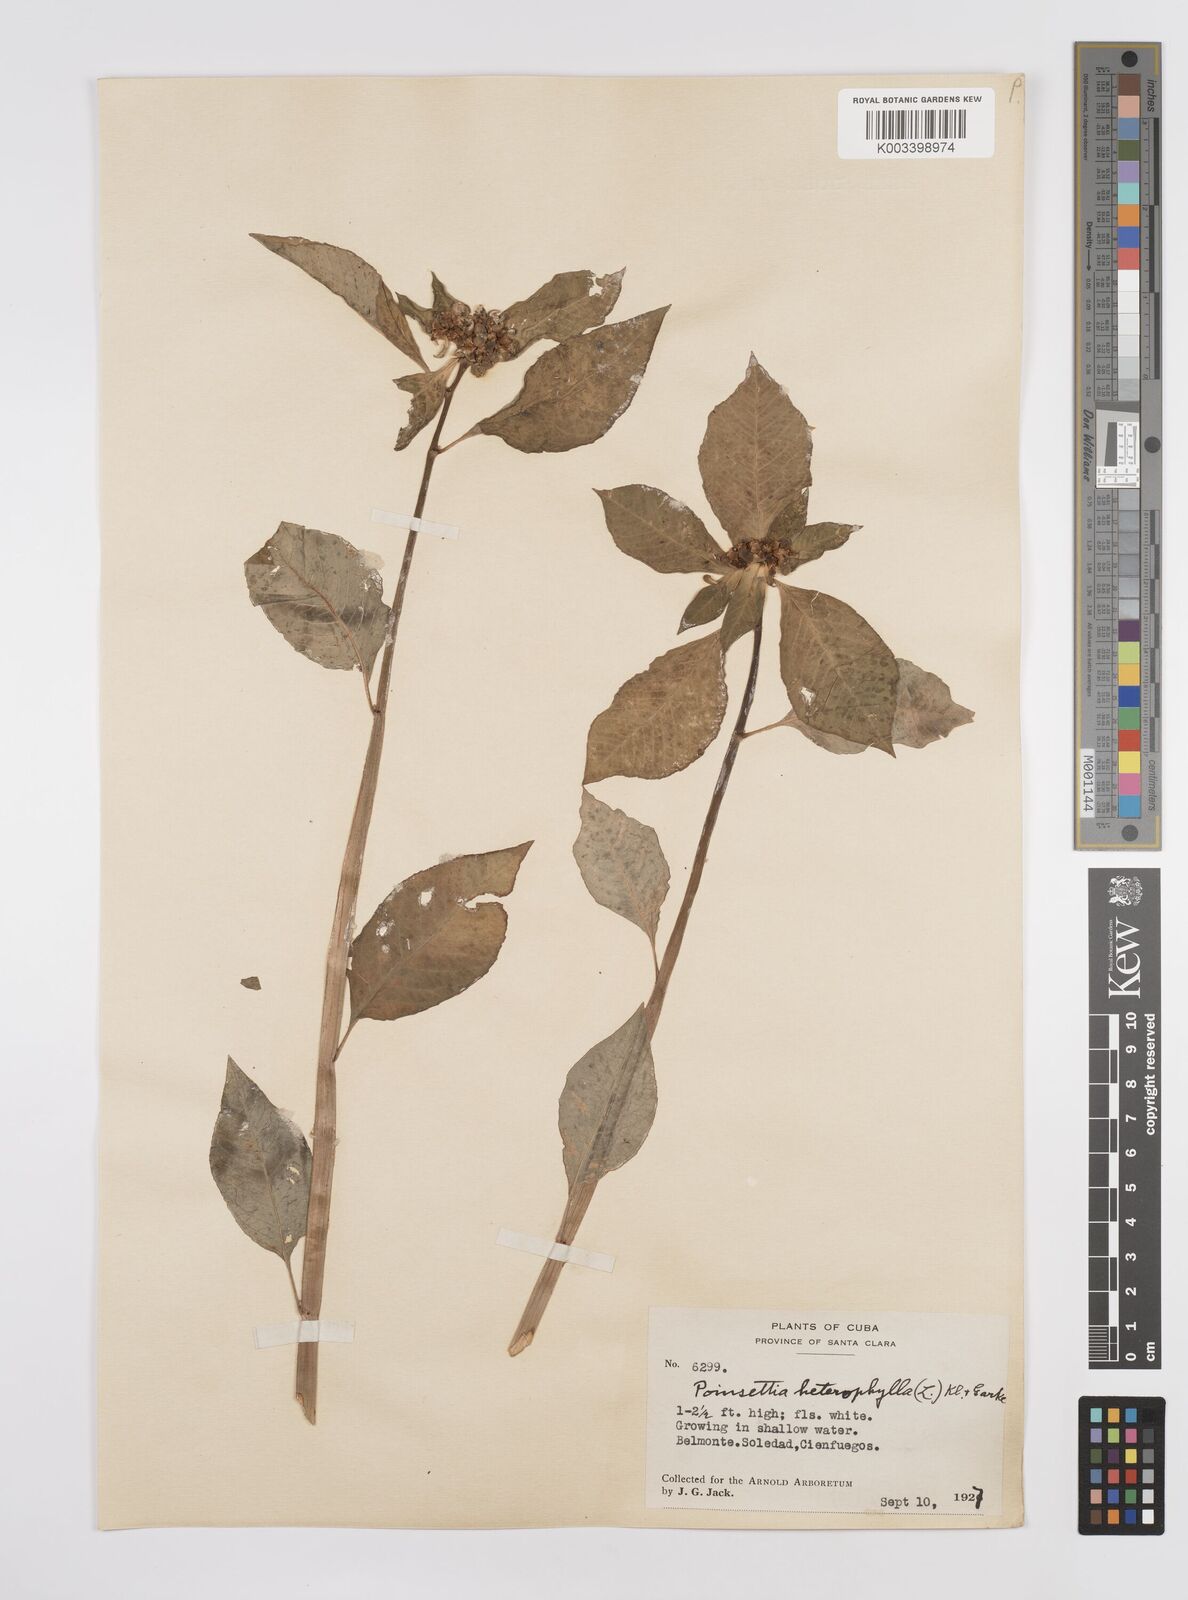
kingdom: Plantae
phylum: Tracheophyta
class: Magnoliopsida
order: Malpighiales
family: Euphorbiaceae
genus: Euphorbia
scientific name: Euphorbia heterophylla
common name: Mexican fireplant
